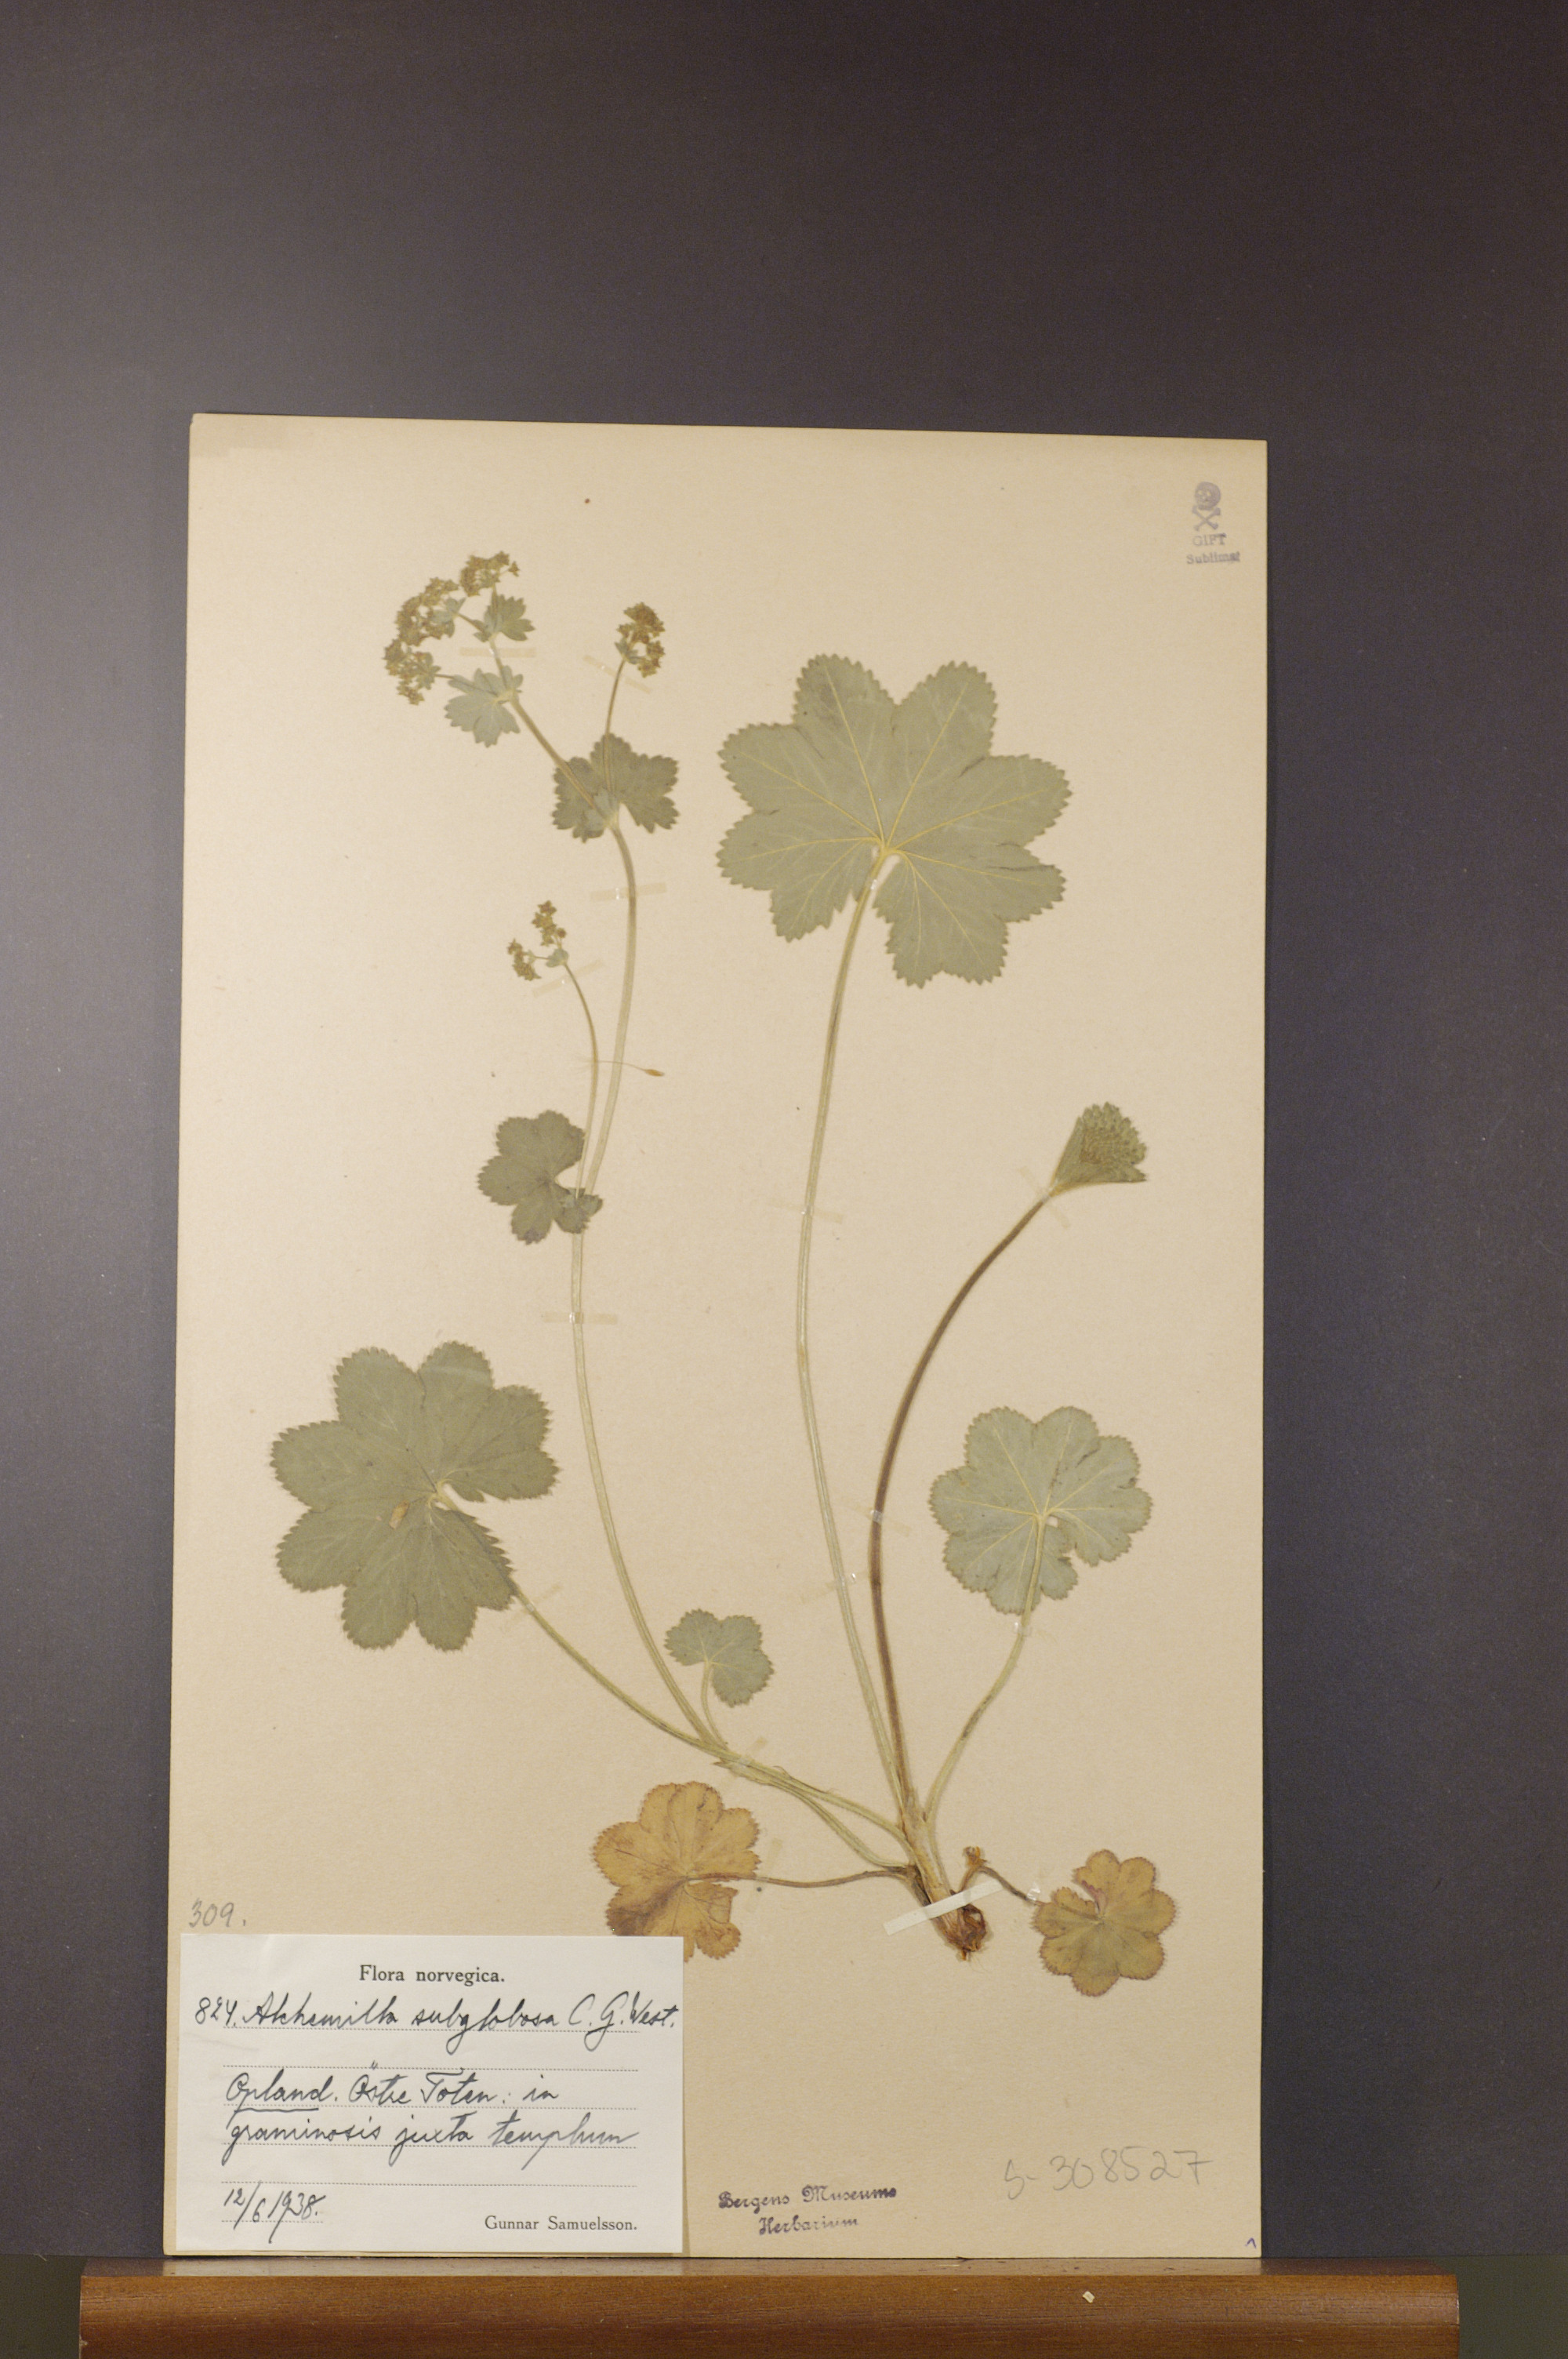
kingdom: Plantae
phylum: Tracheophyta
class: Magnoliopsida
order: Rosales
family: Rosaceae
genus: Alchemilla
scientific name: Alchemilla subglobosa
